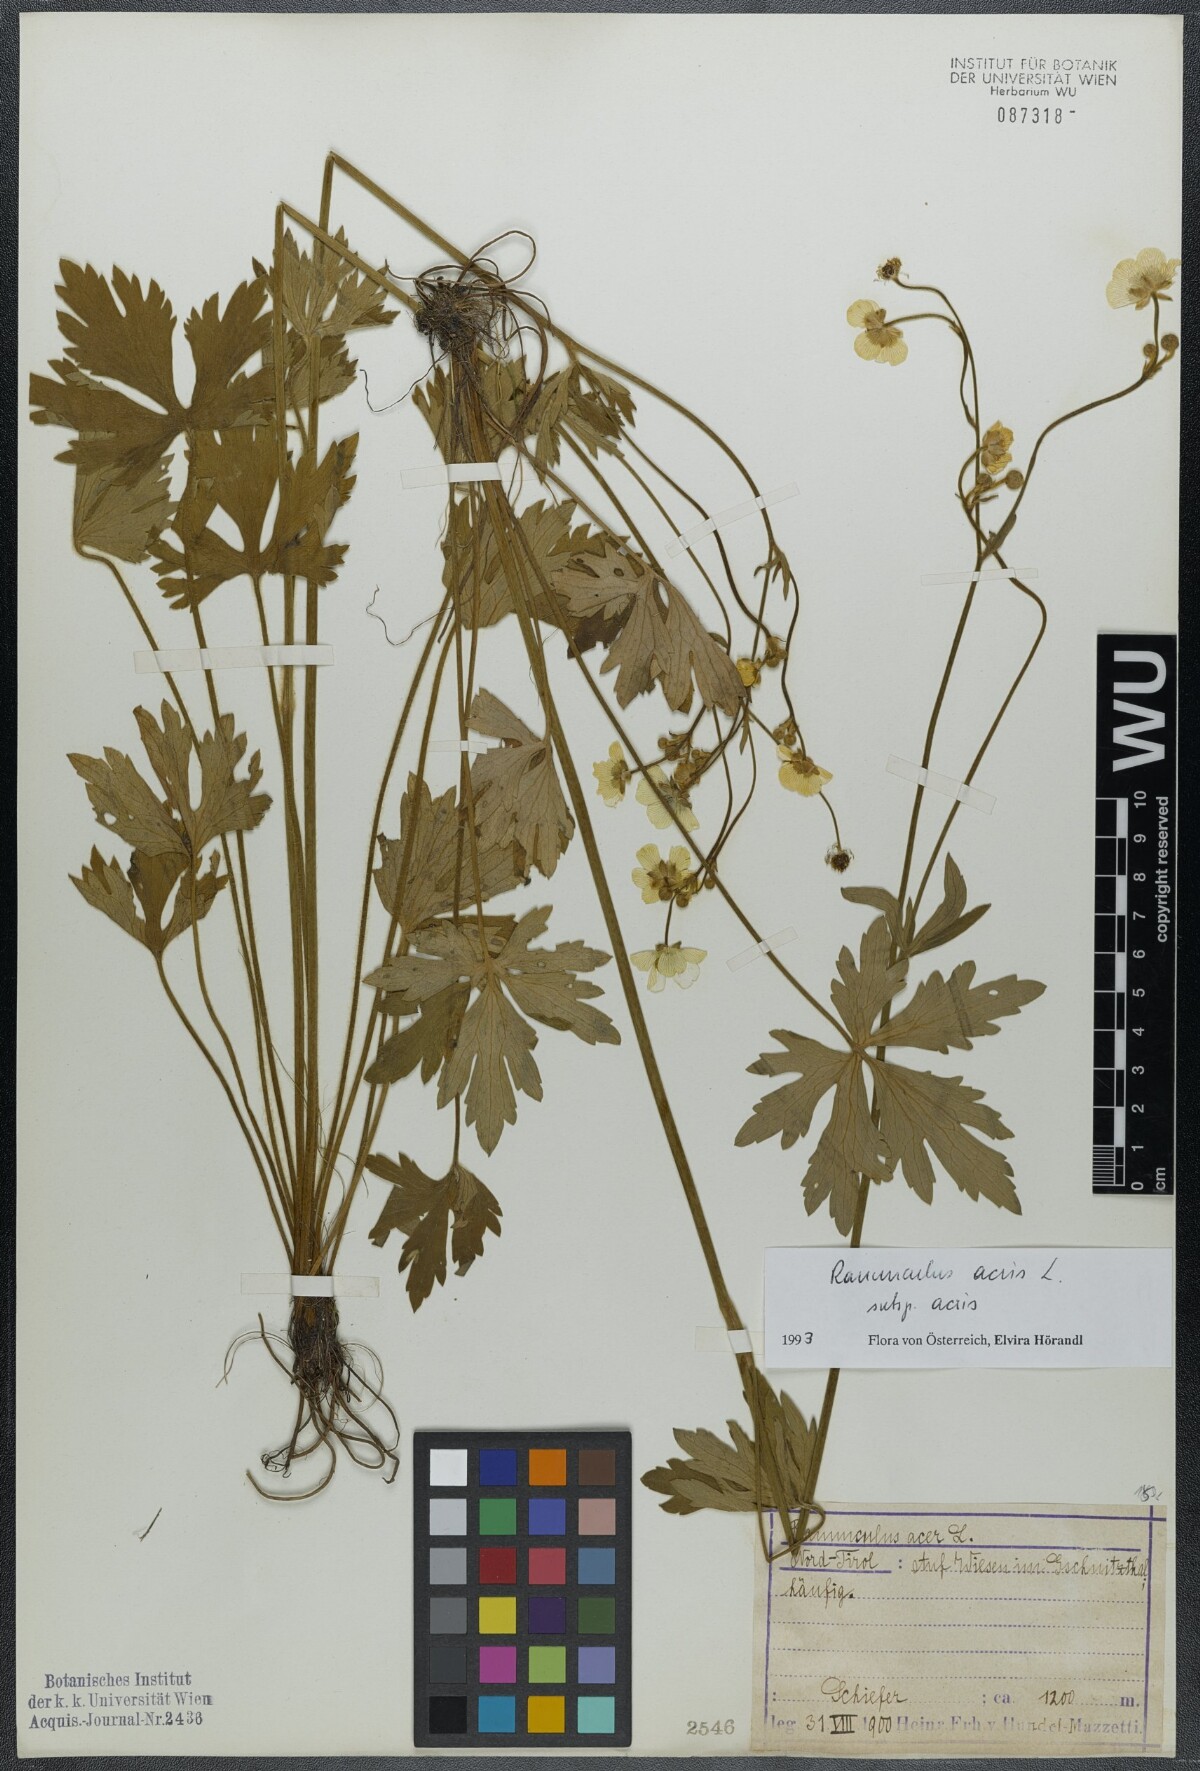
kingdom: Plantae
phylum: Tracheophyta
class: Magnoliopsida
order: Ranunculales
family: Ranunculaceae
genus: Ranunculus
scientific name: Ranunculus acris
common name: Meadow buttercup
